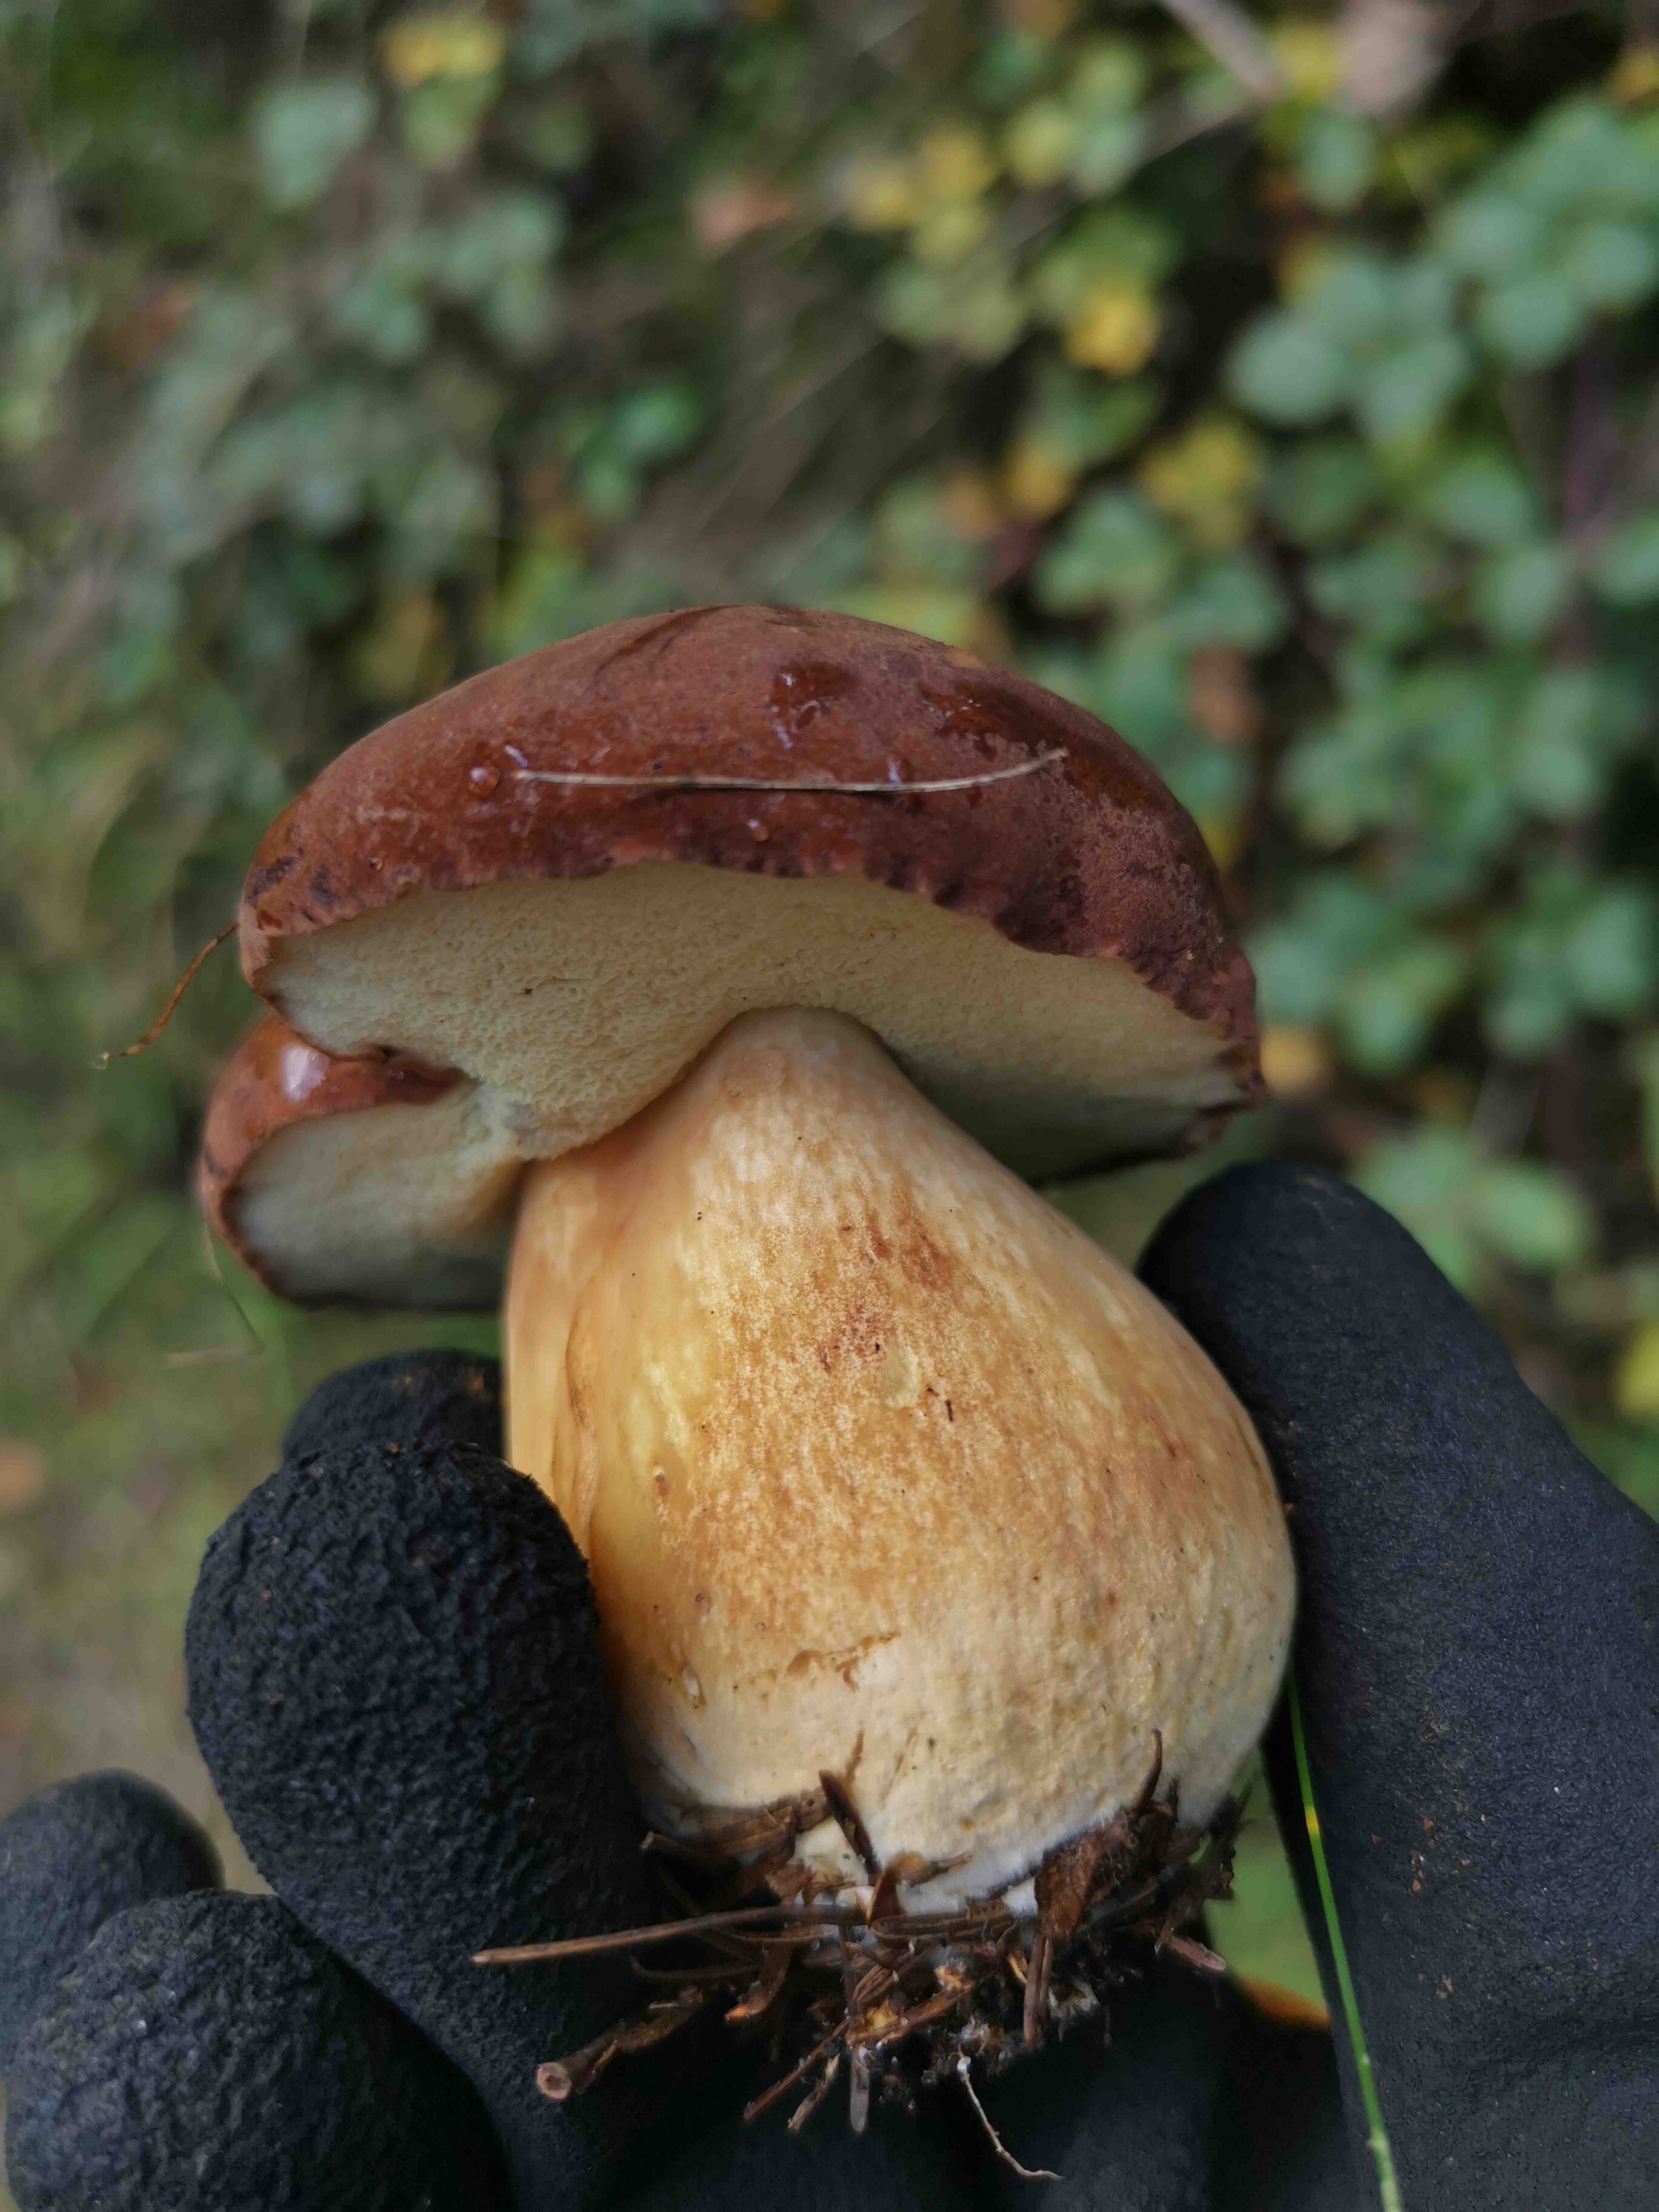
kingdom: Fungi
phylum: Basidiomycota
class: Agaricomycetes
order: Boletales
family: Boletaceae
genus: Boletus
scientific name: Boletus pinophilus
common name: rødbrun rørhat
